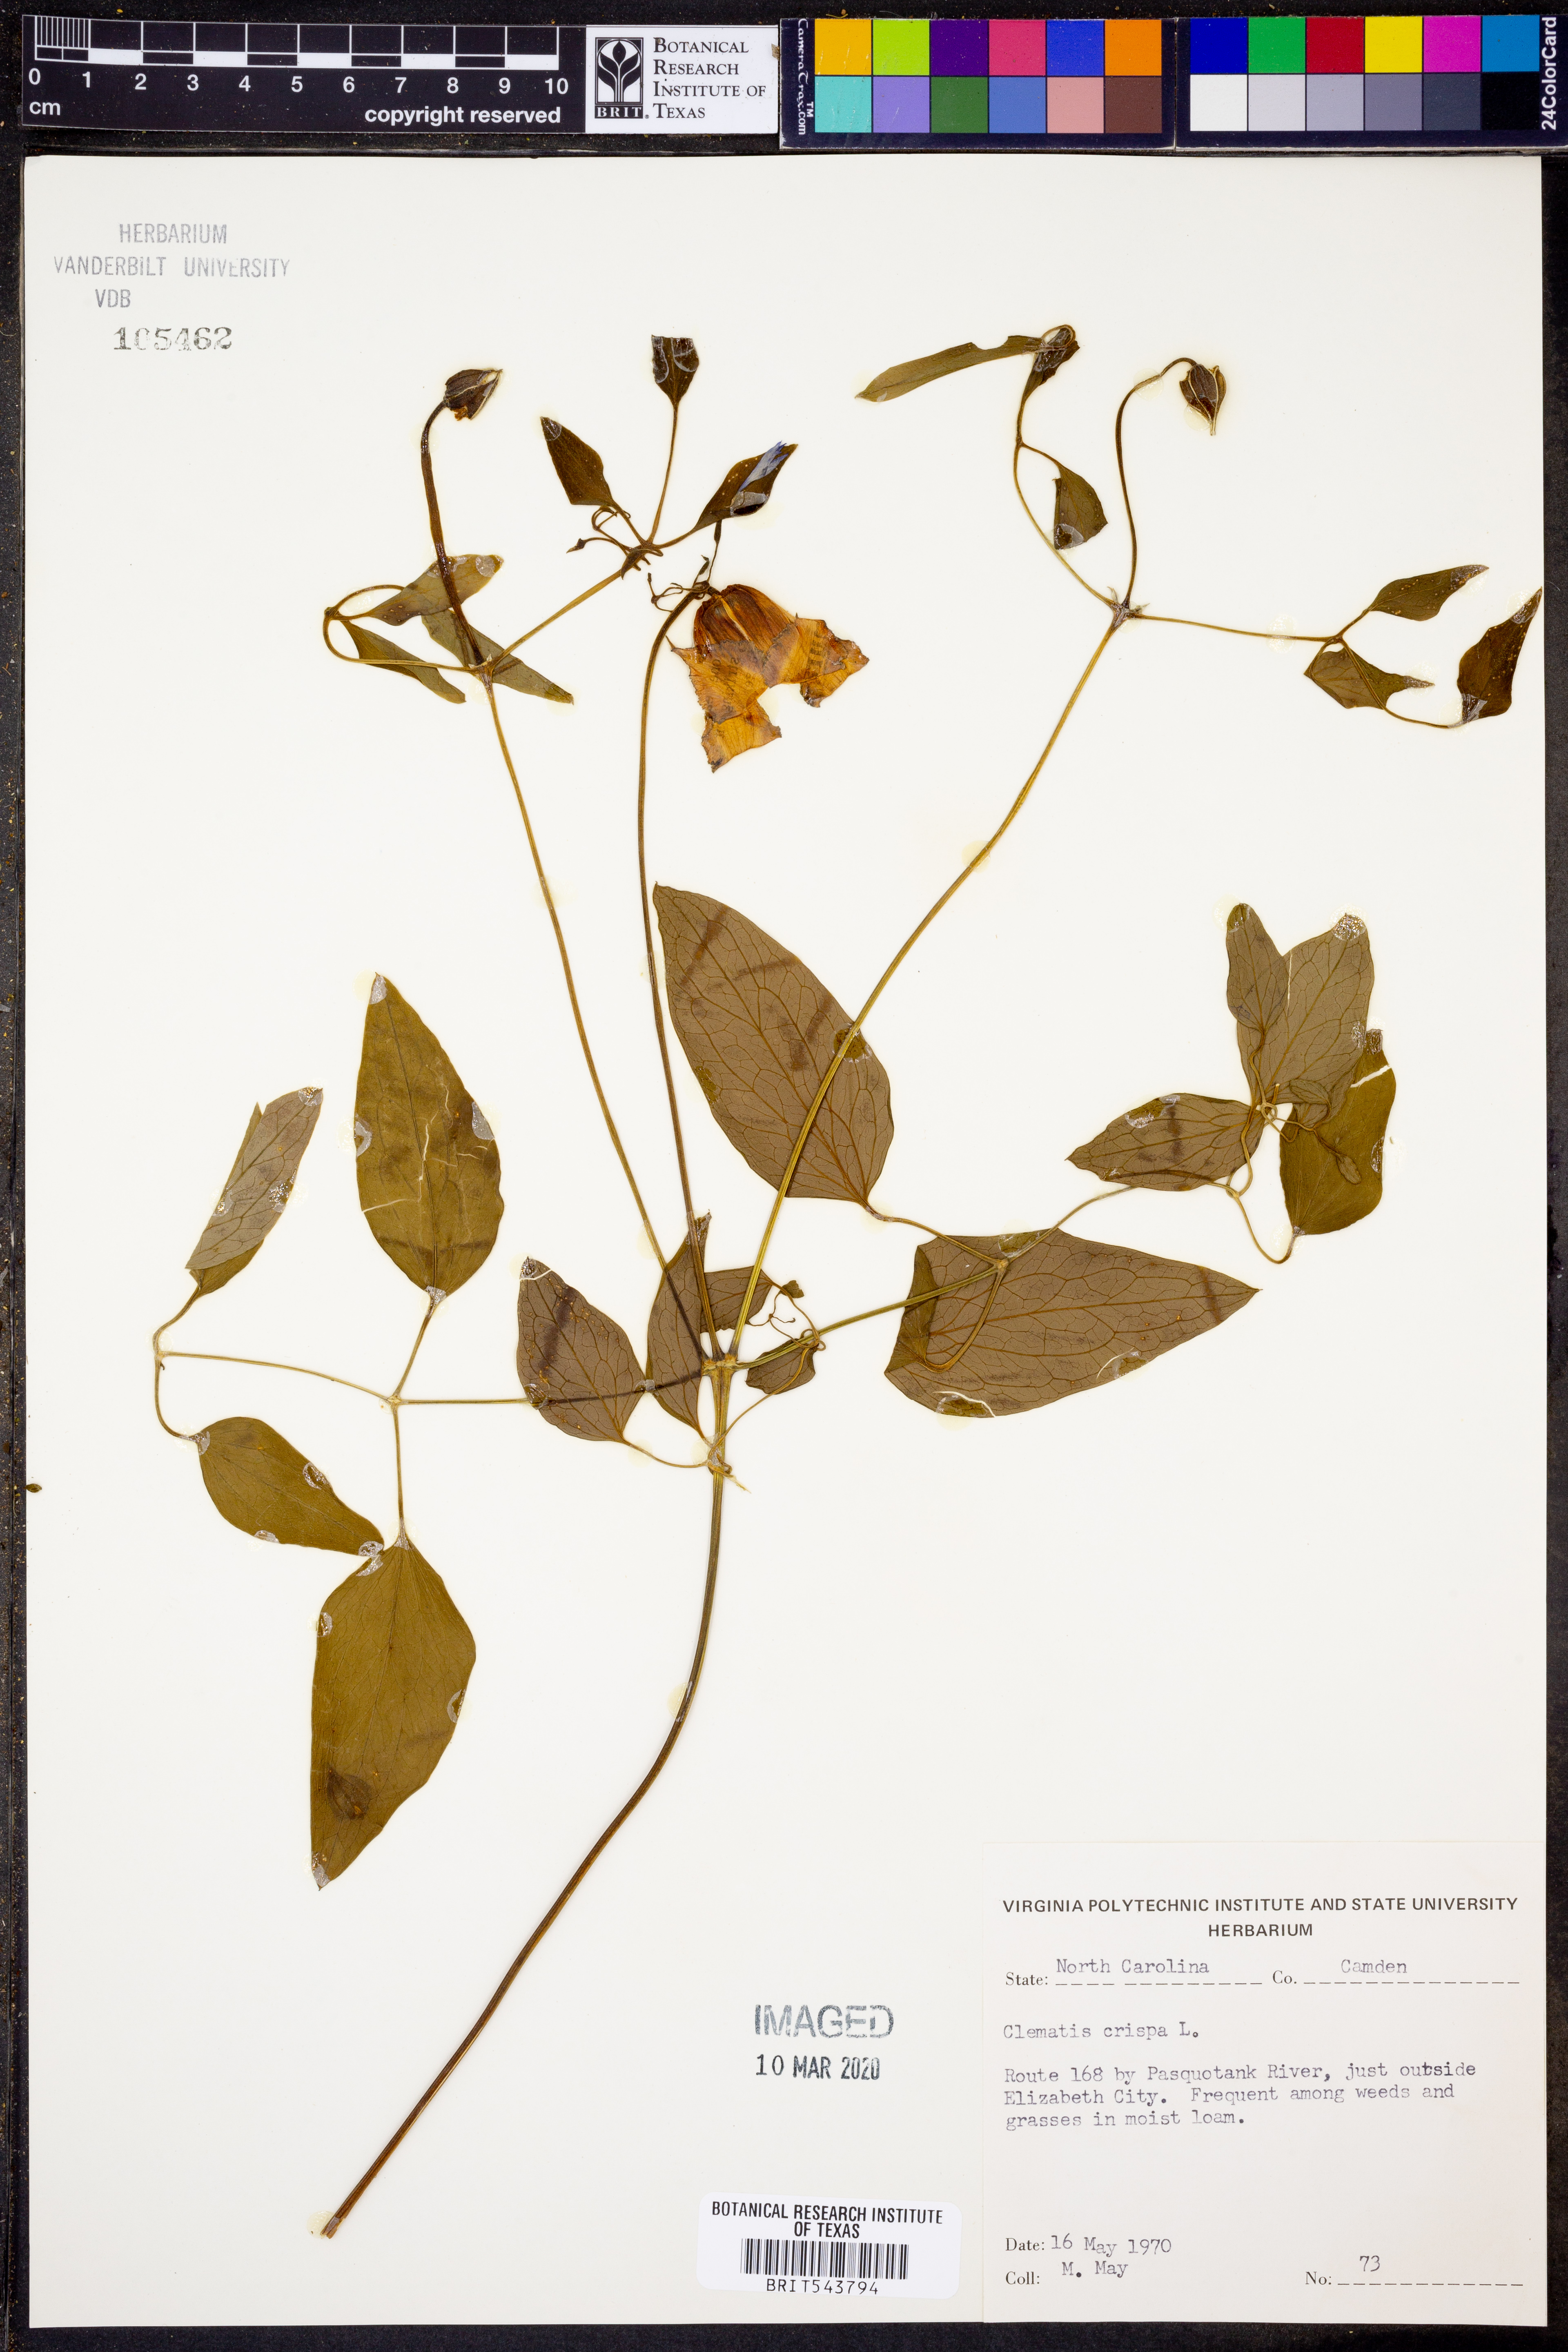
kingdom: Plantae
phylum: Tracheophyta
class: Magnoliopsida
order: Ranunculales
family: Ranunculaceae
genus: Clematis
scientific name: Clematis crispa
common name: Curly clematis
